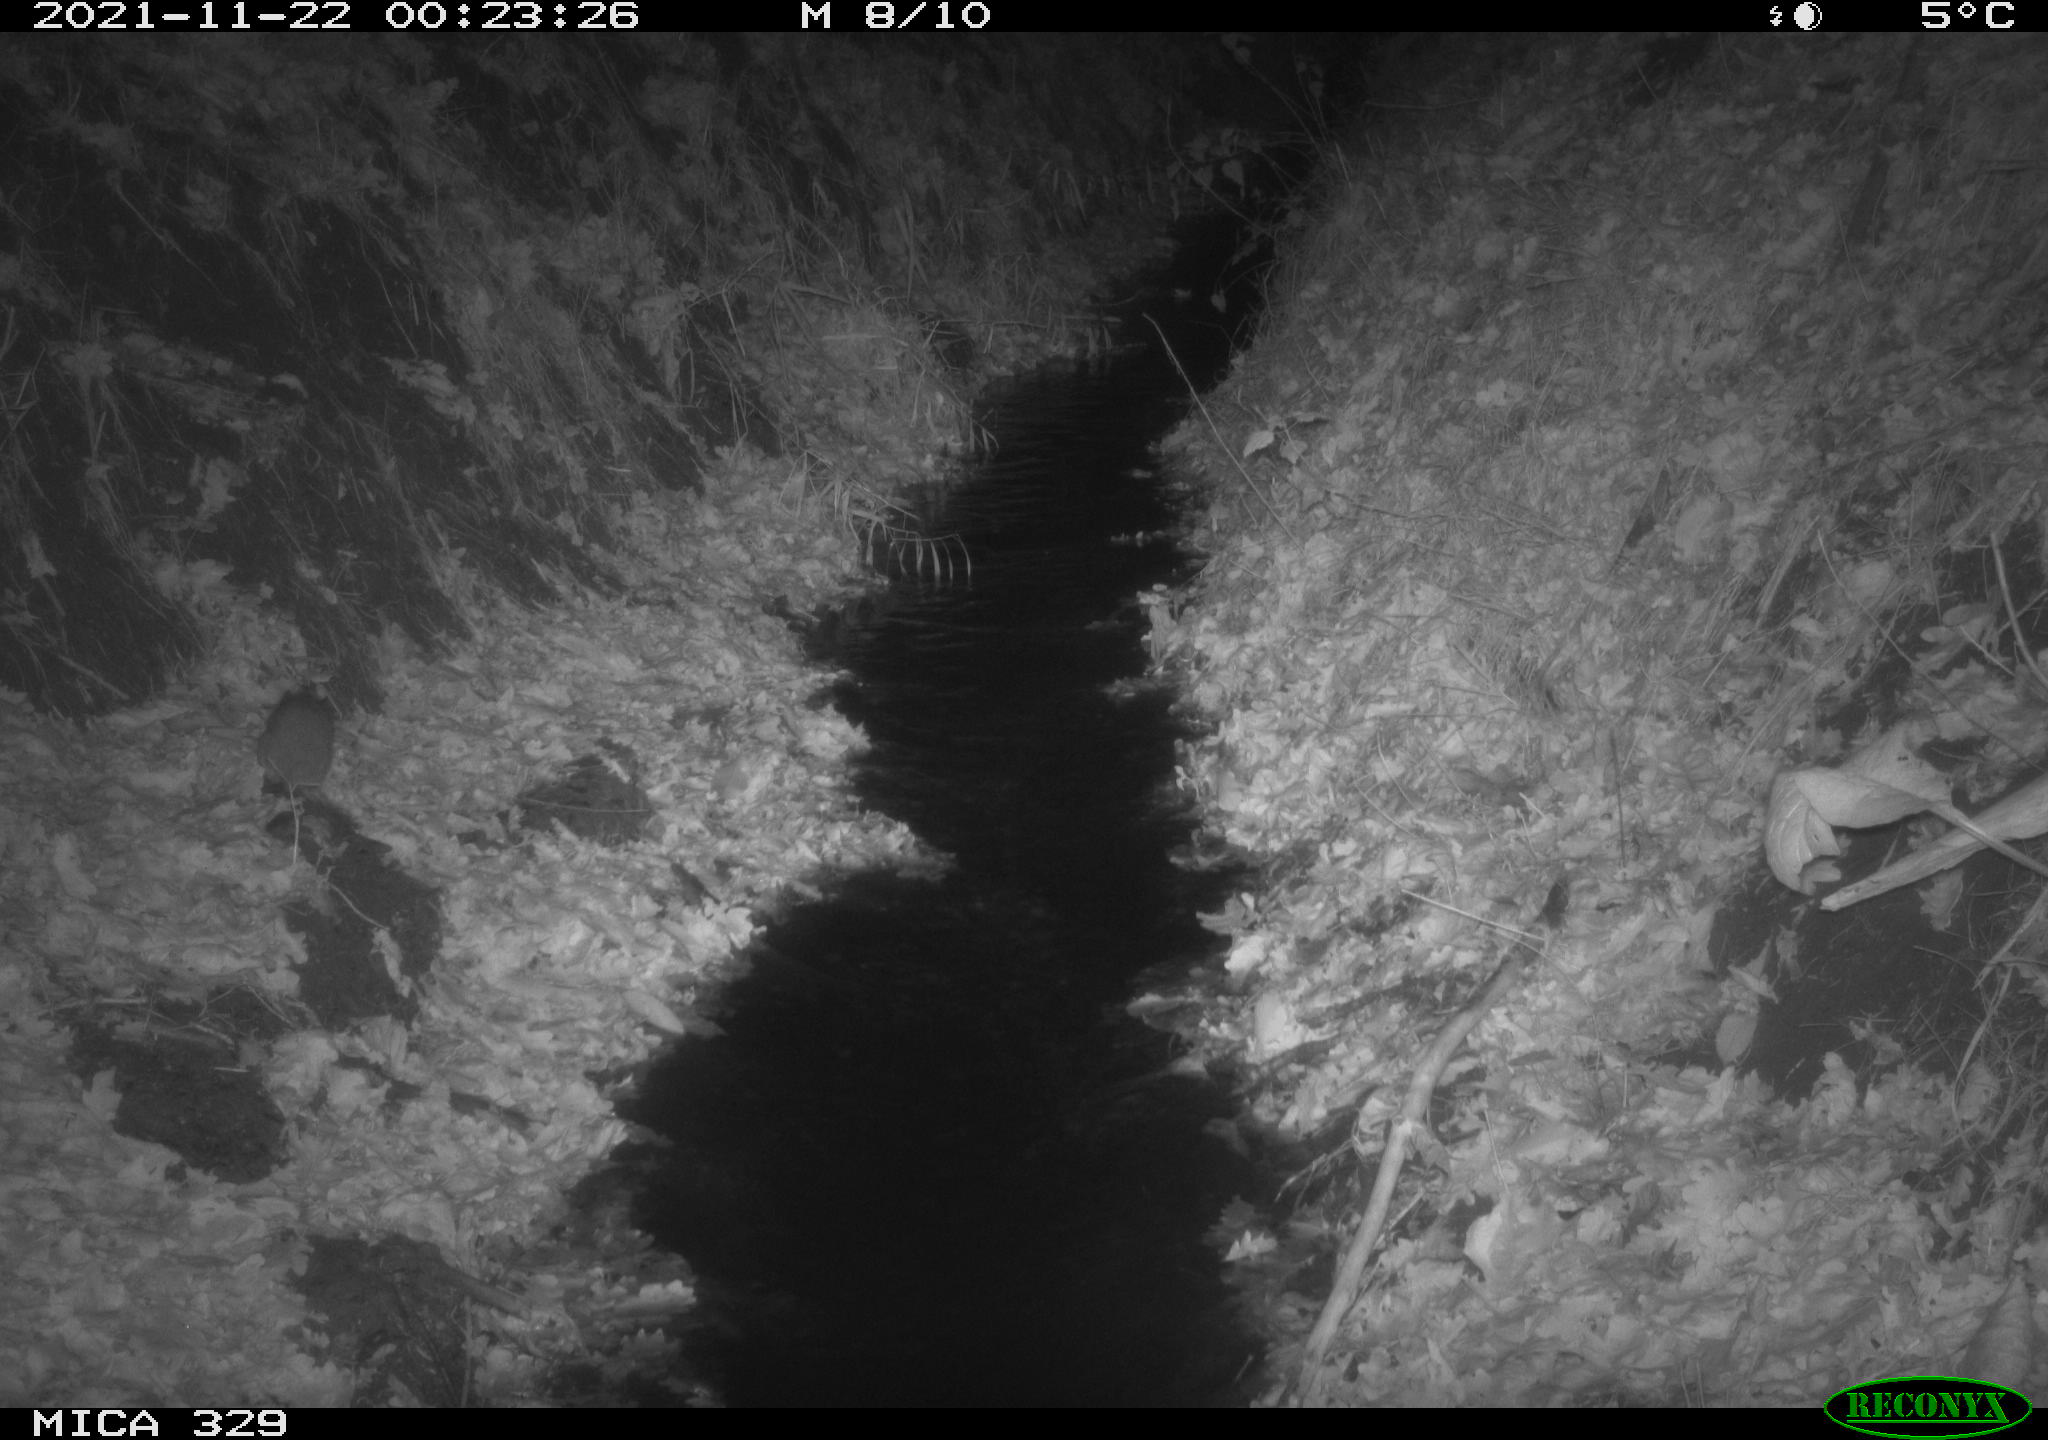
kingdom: Animalia
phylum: Chordata
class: Mammalia
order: Rodentia
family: Muridae
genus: Rattus
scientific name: Rattus norvegicus
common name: Brown rat
